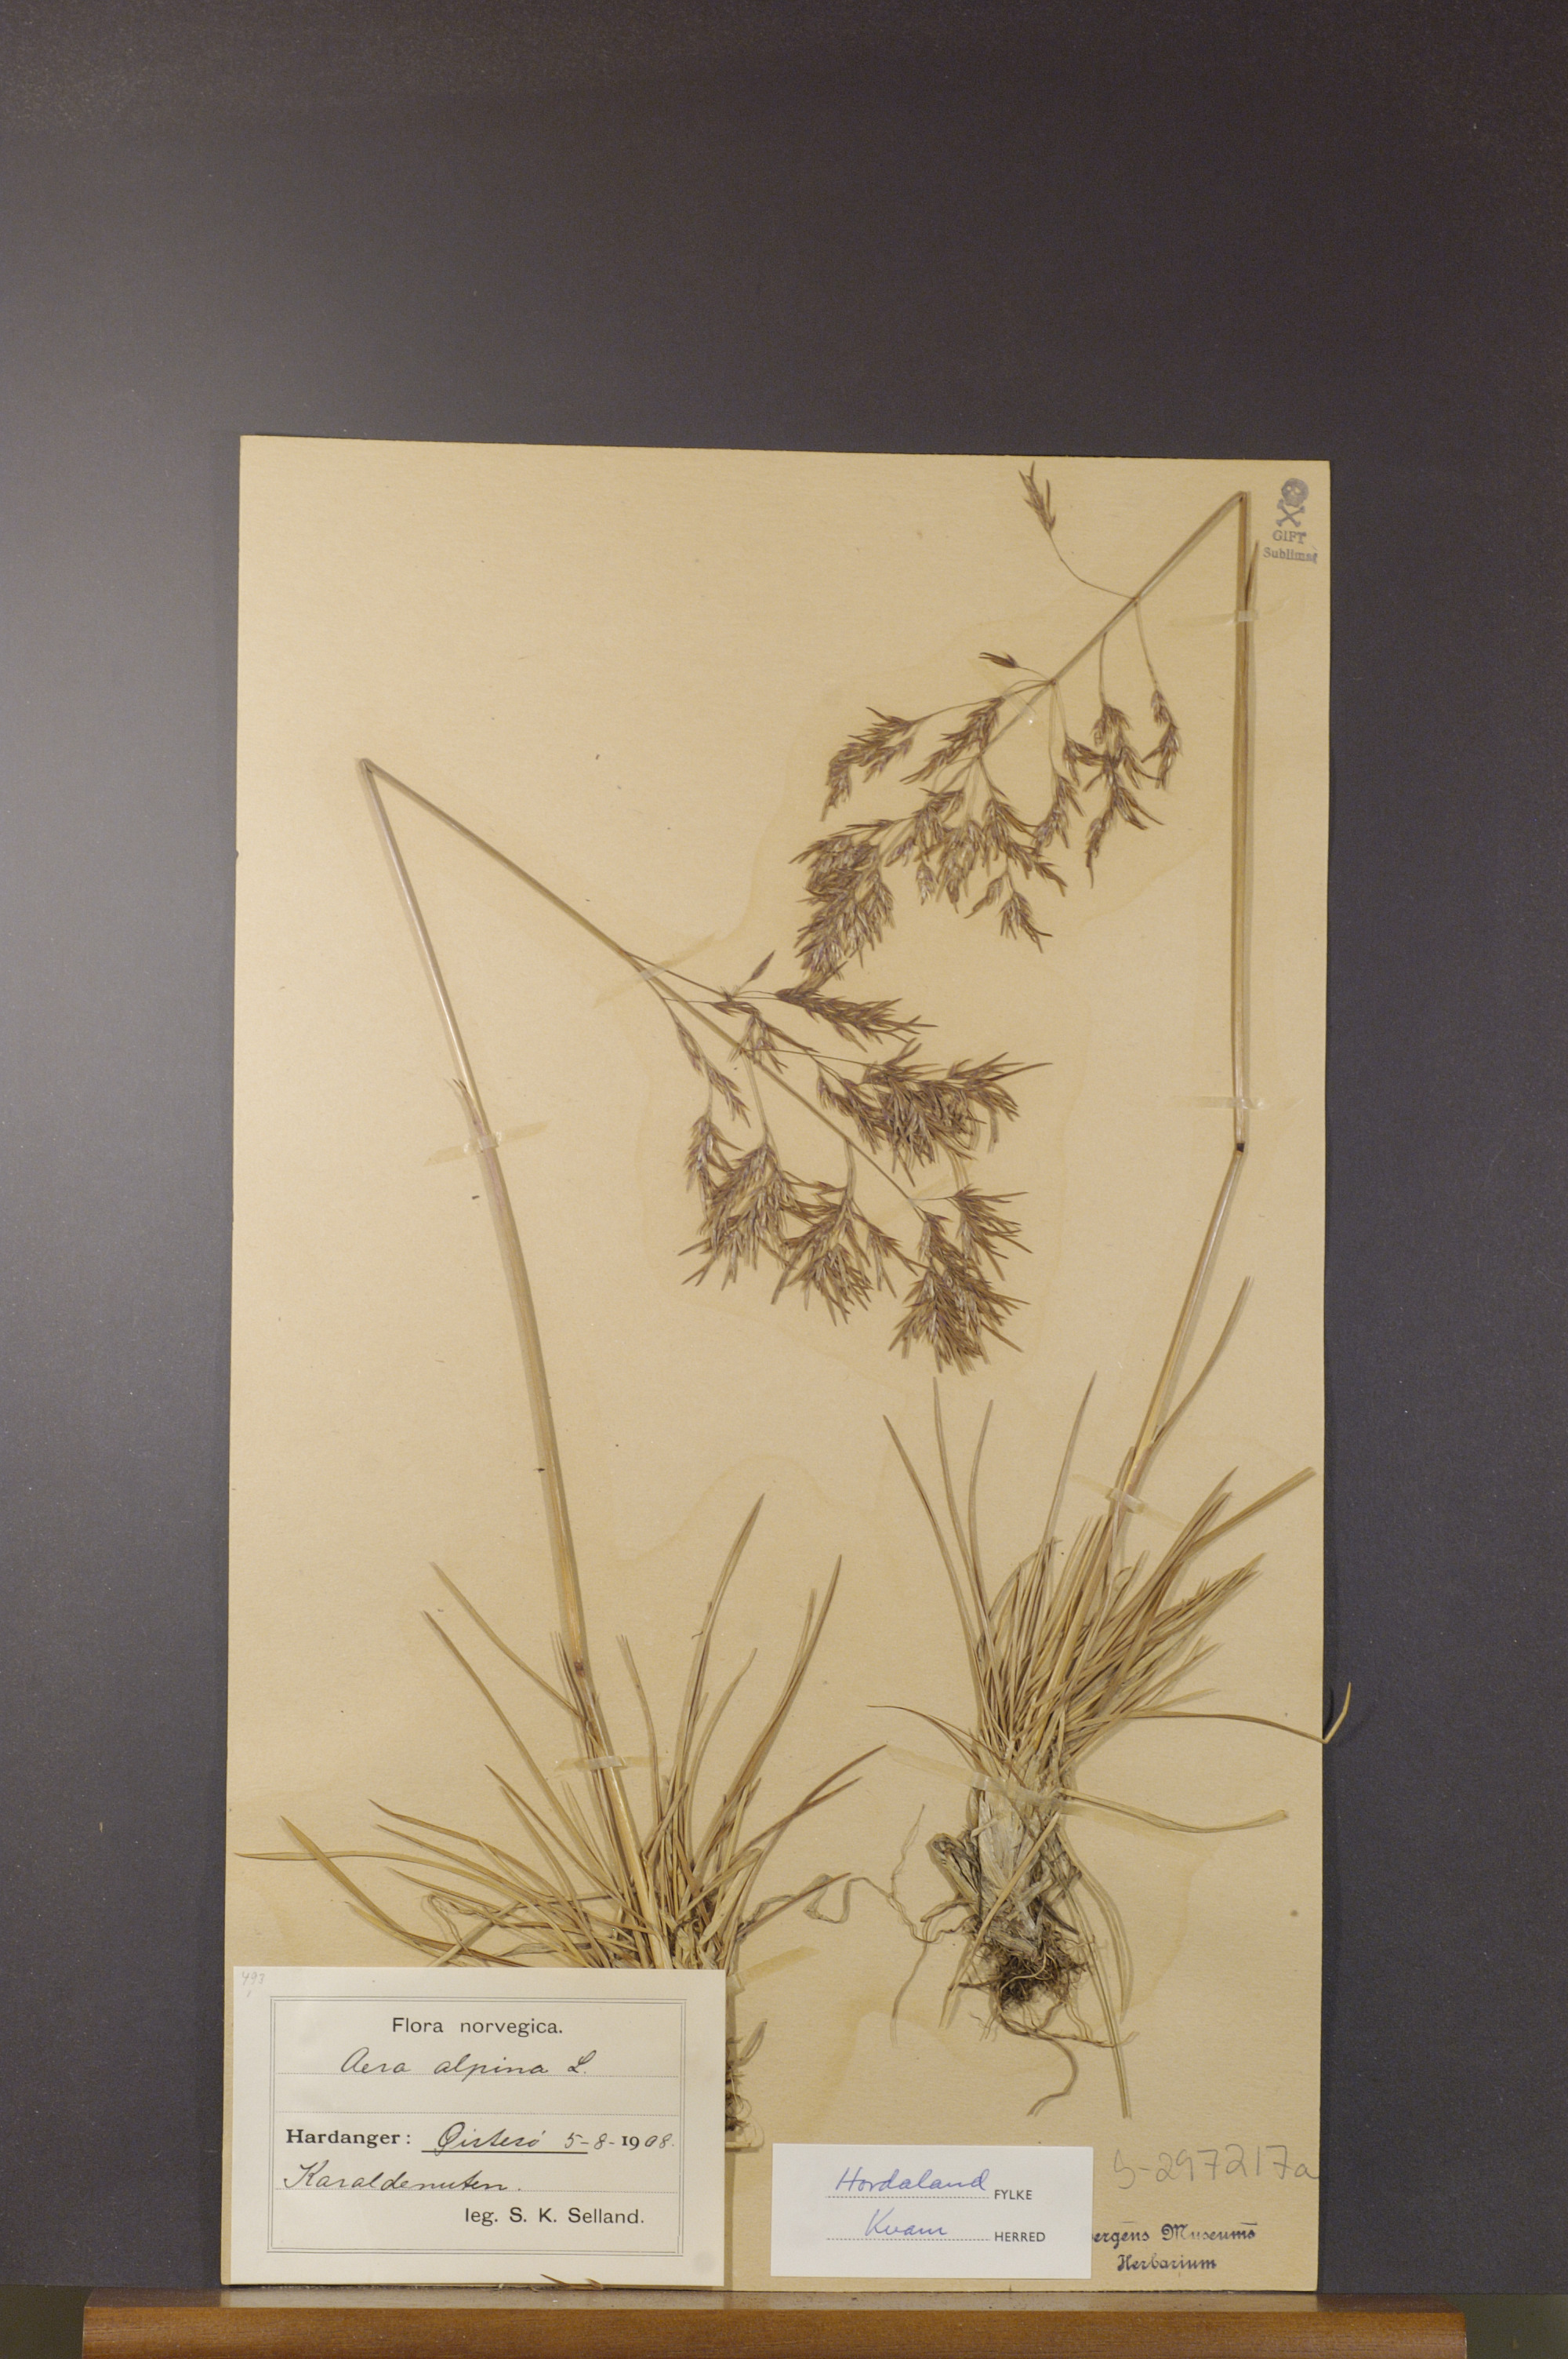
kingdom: Plantae
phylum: Tracheophyta
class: Liliopsida
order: Poales
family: Poaceae
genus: Deschampsia
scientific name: Deschampsia cespitosa
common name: Tufted hair-grass
